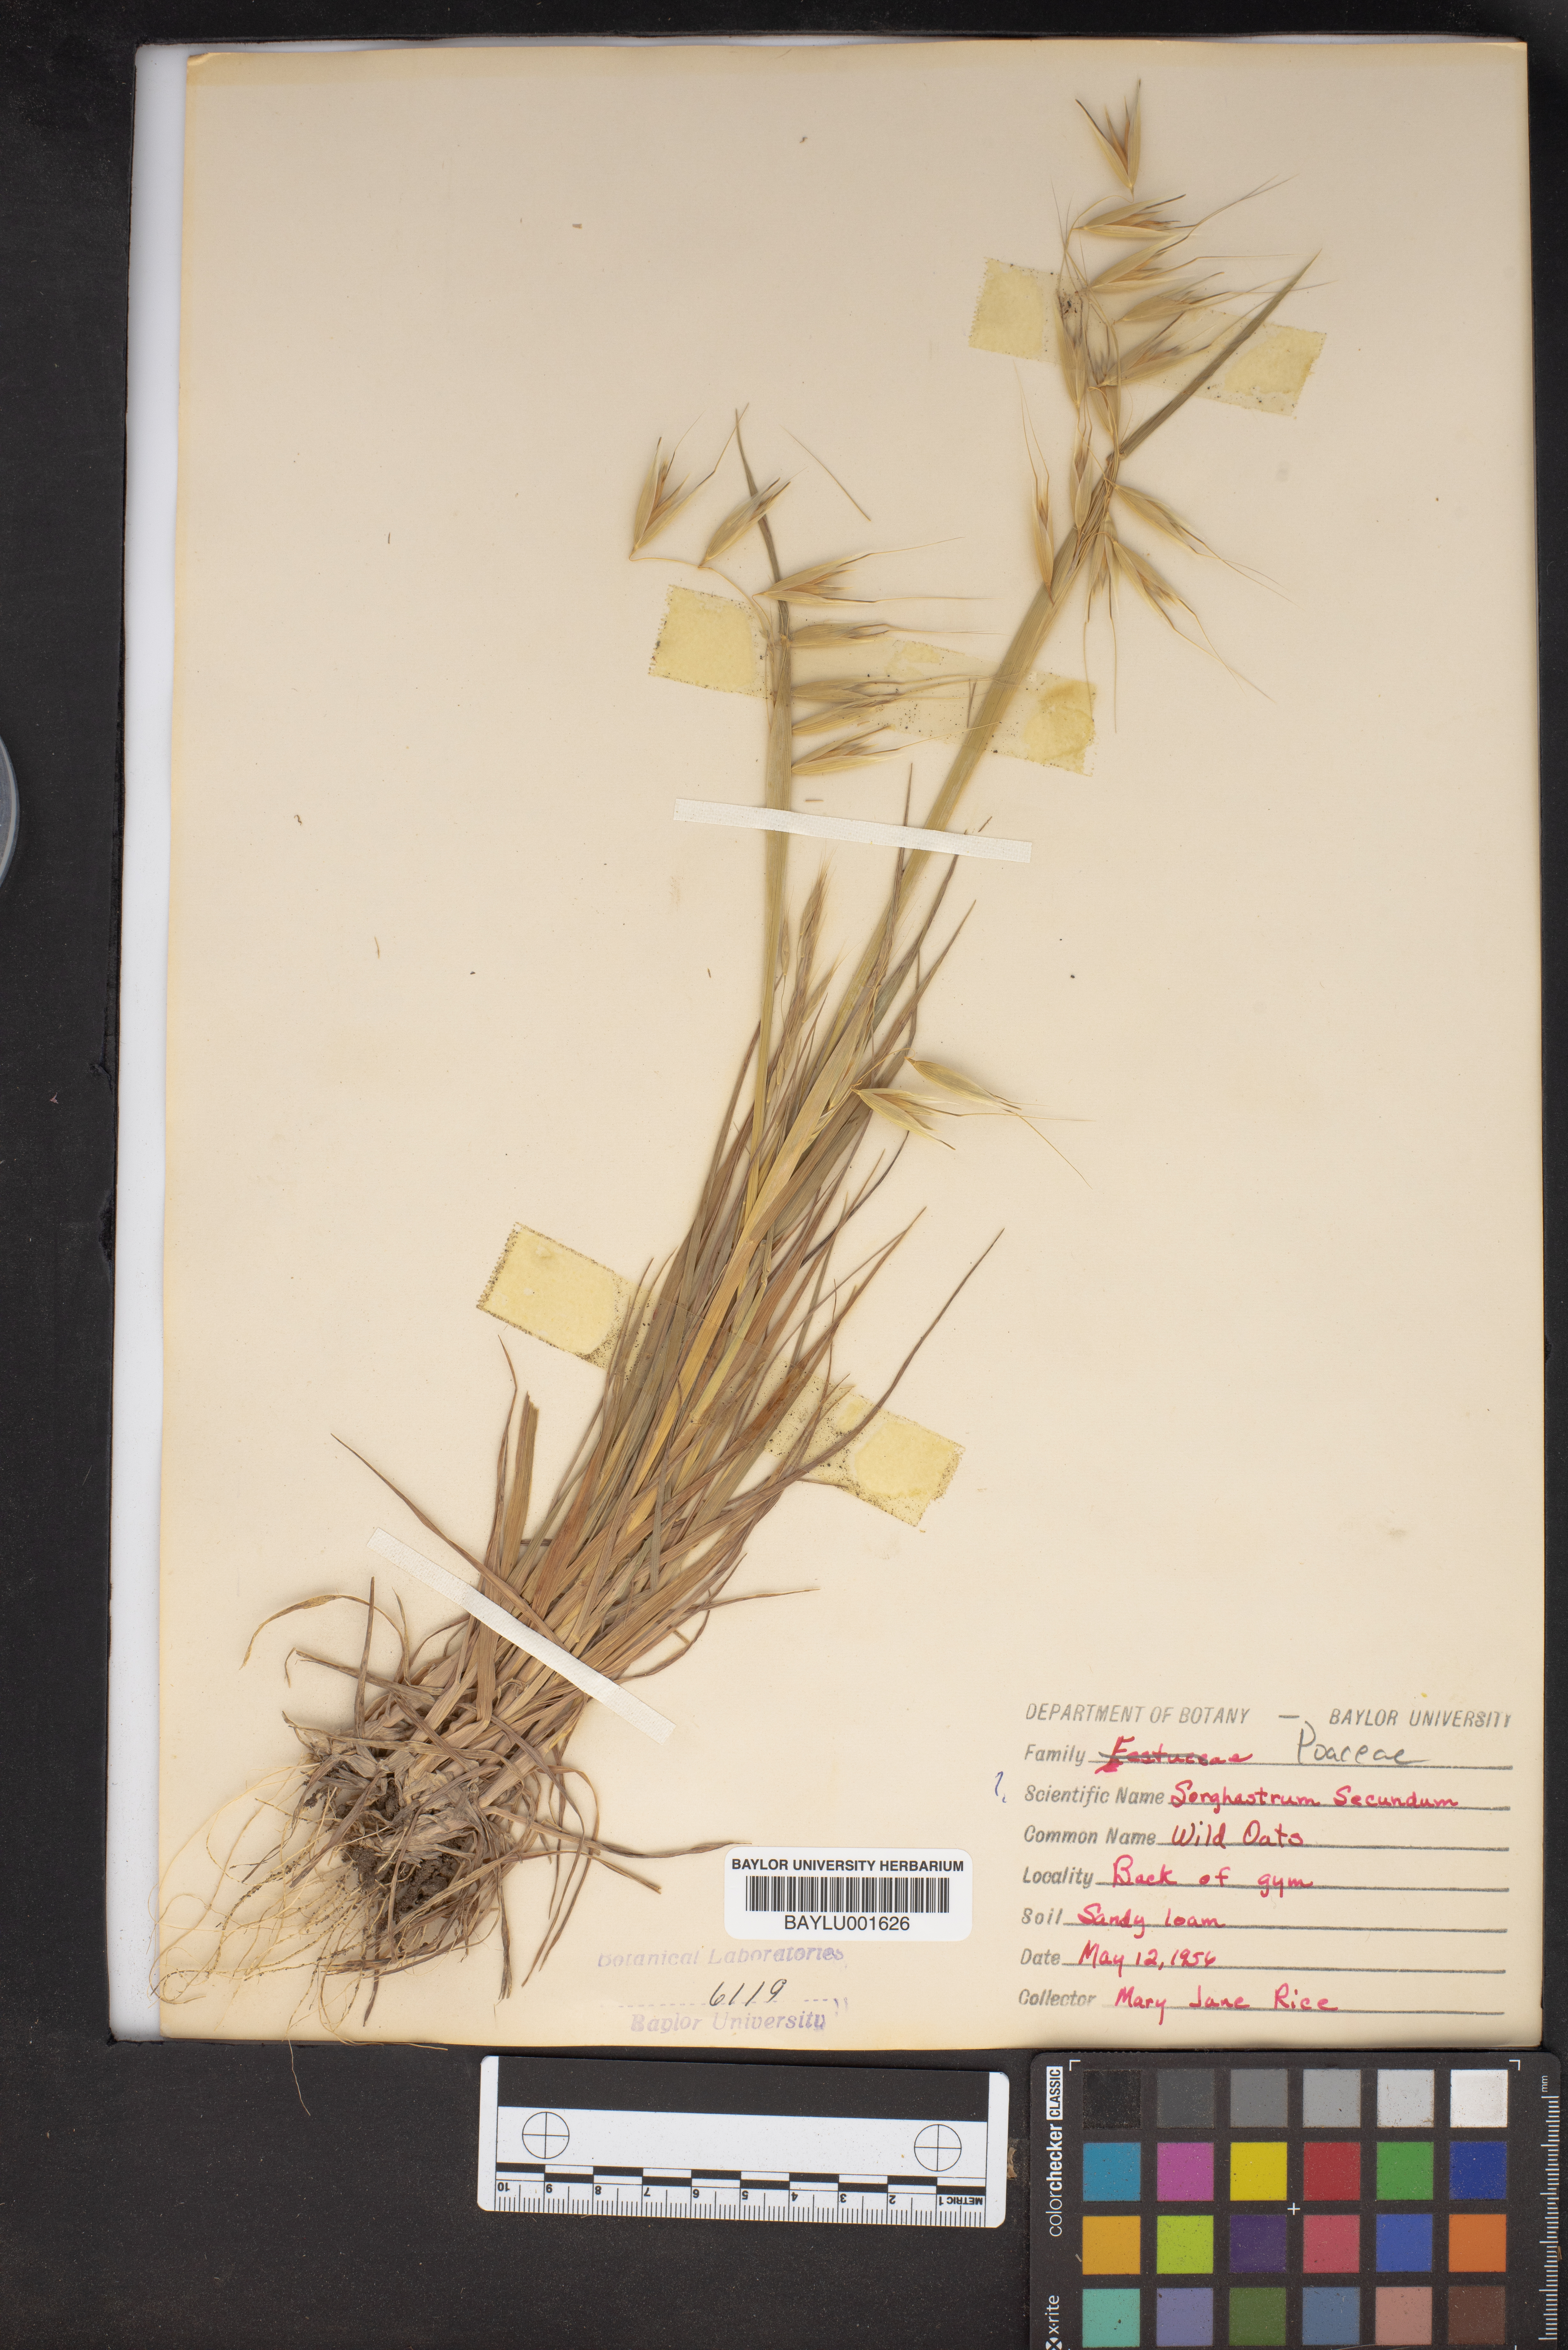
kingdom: Plantae
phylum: Tracheophyta
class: Liliopsida
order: Poales
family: Poaceae
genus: Sorghastrum
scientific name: Sorghastrum secundum
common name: Lopsided indian grass
